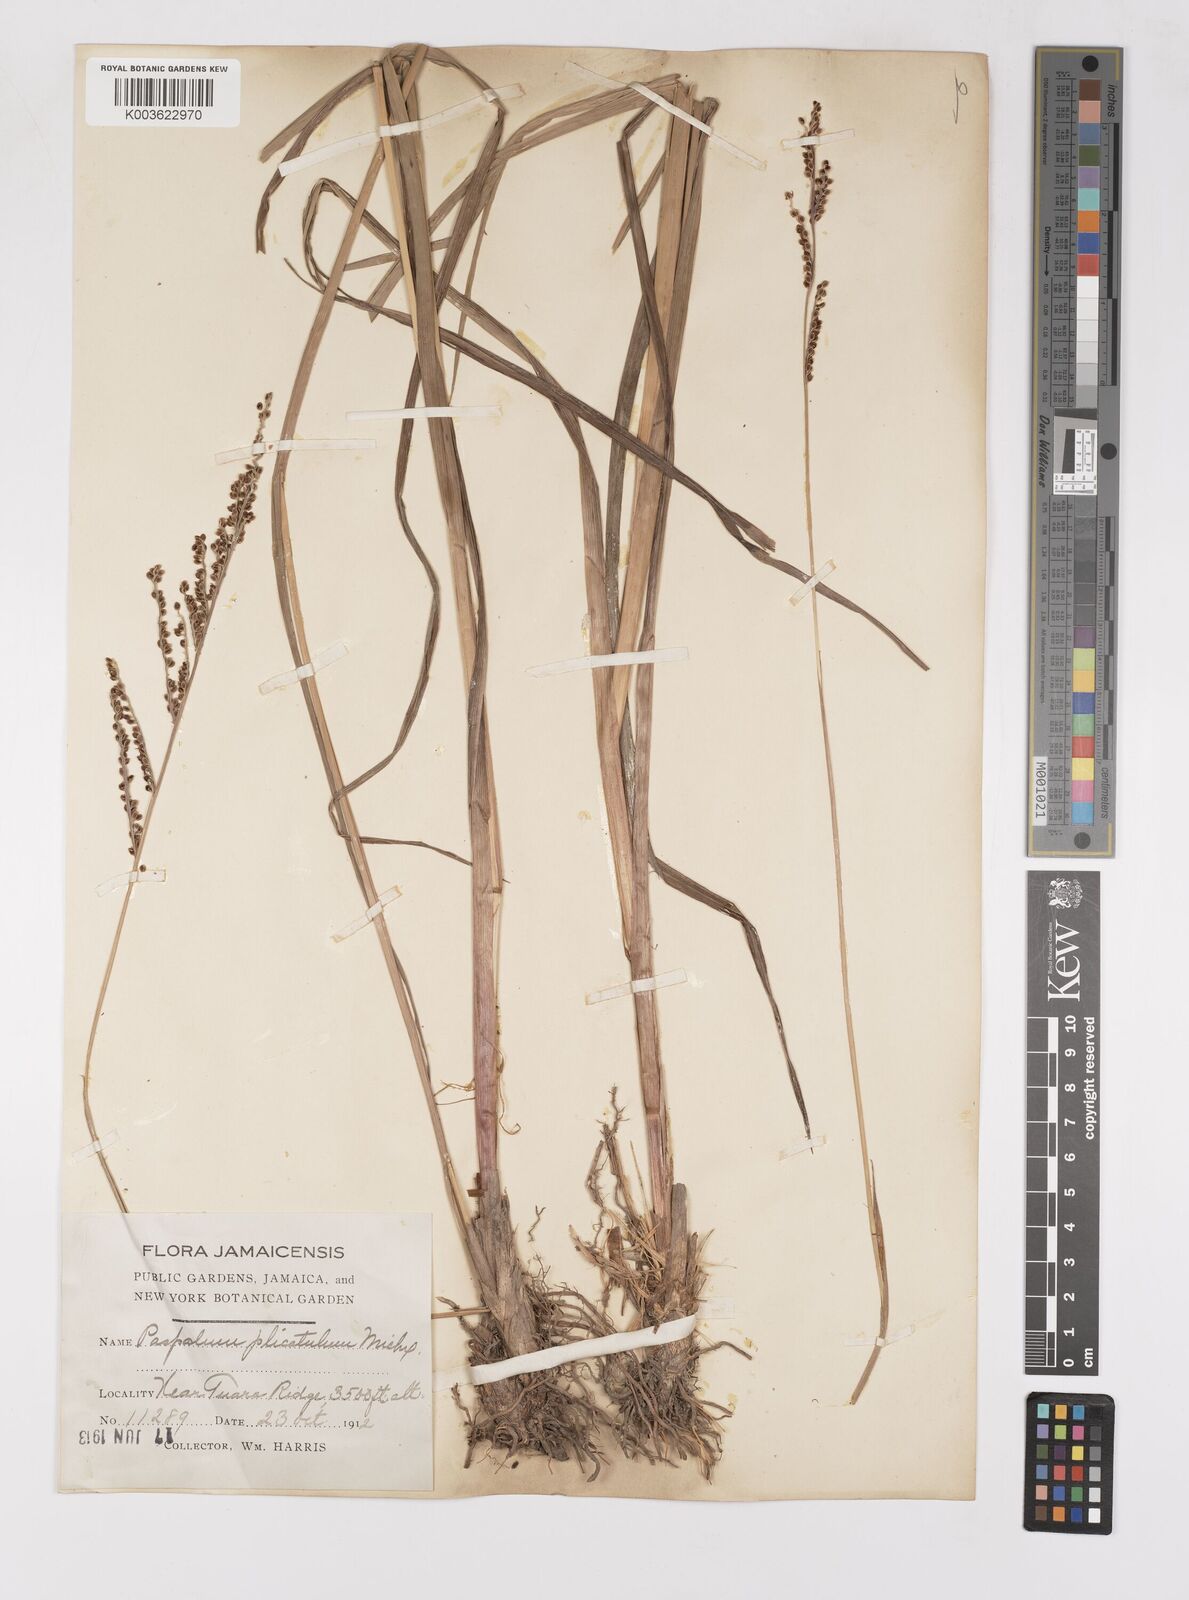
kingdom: Plantae
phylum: Tracheophyta
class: Liliopsida
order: Poales
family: Poaceae
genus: Paspalum
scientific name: Paspalum
